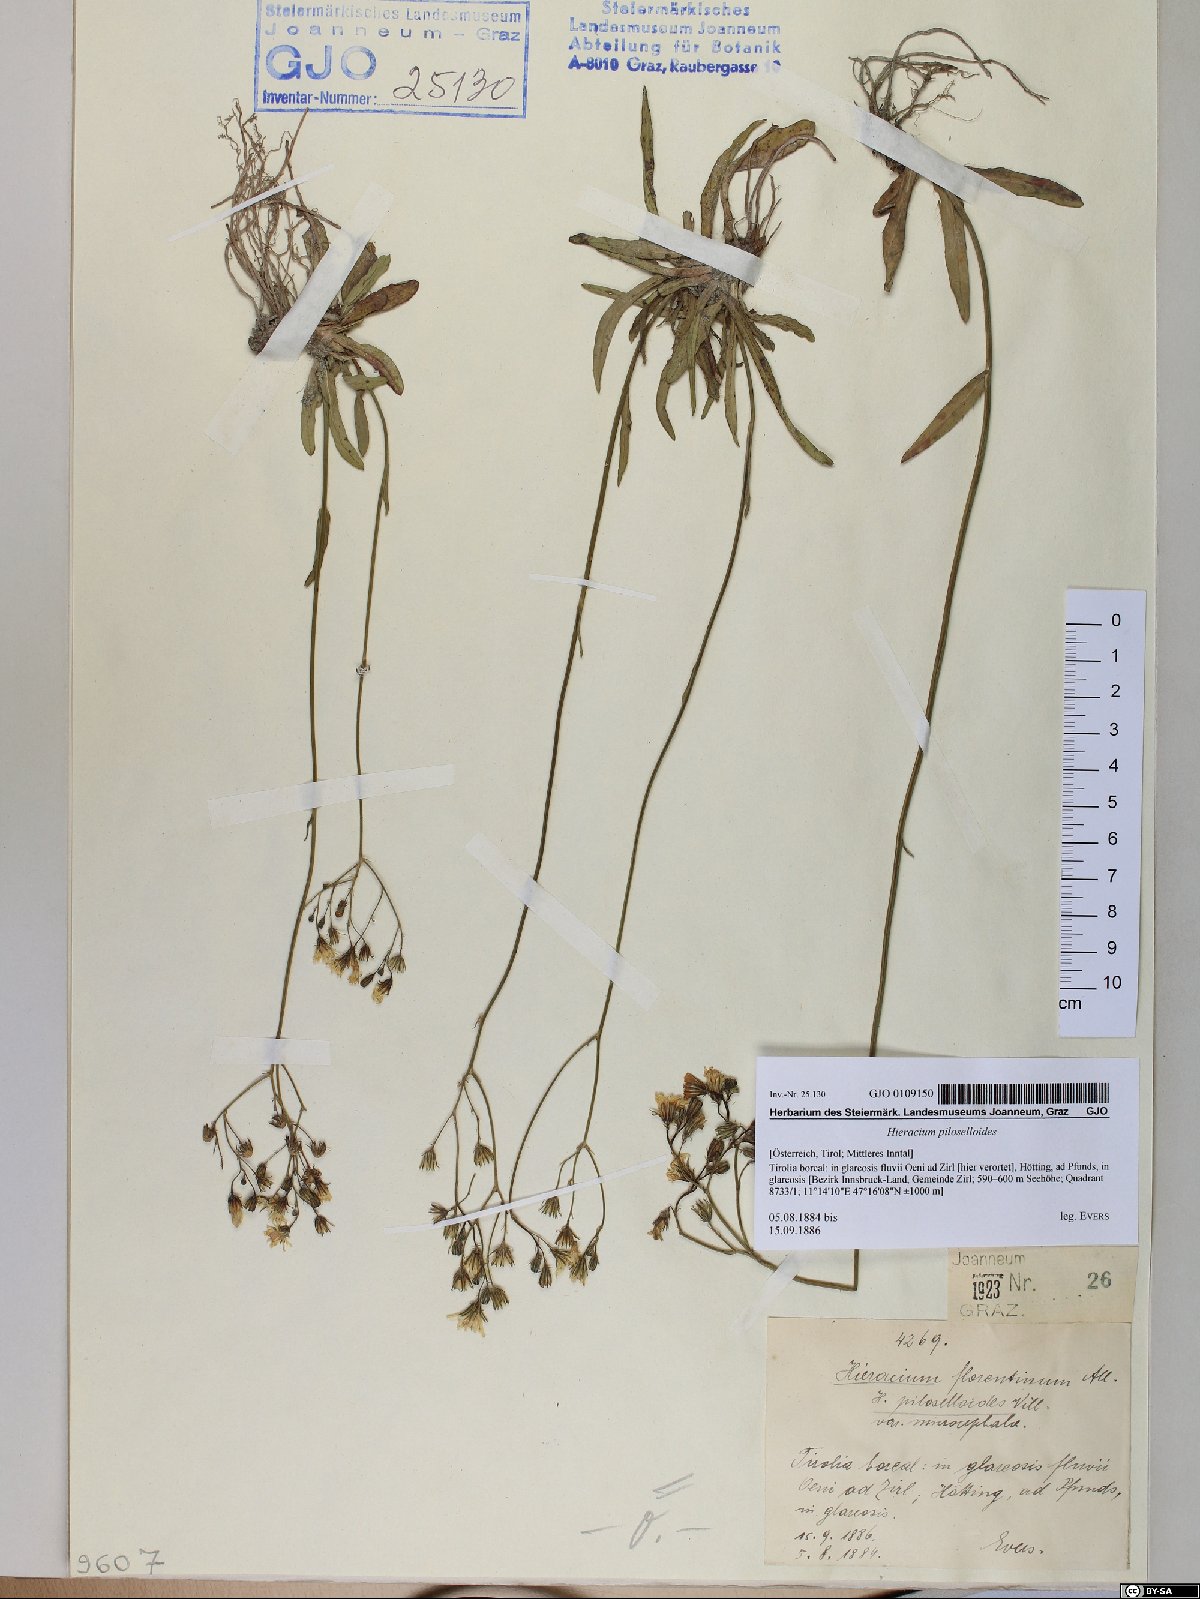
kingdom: Plantae
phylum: Tracheophyta
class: Magnoliopsida
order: Asterales
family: Asteraceae
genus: Pilosella
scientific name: Pilosella piloselloides
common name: Glaucous king-devil
